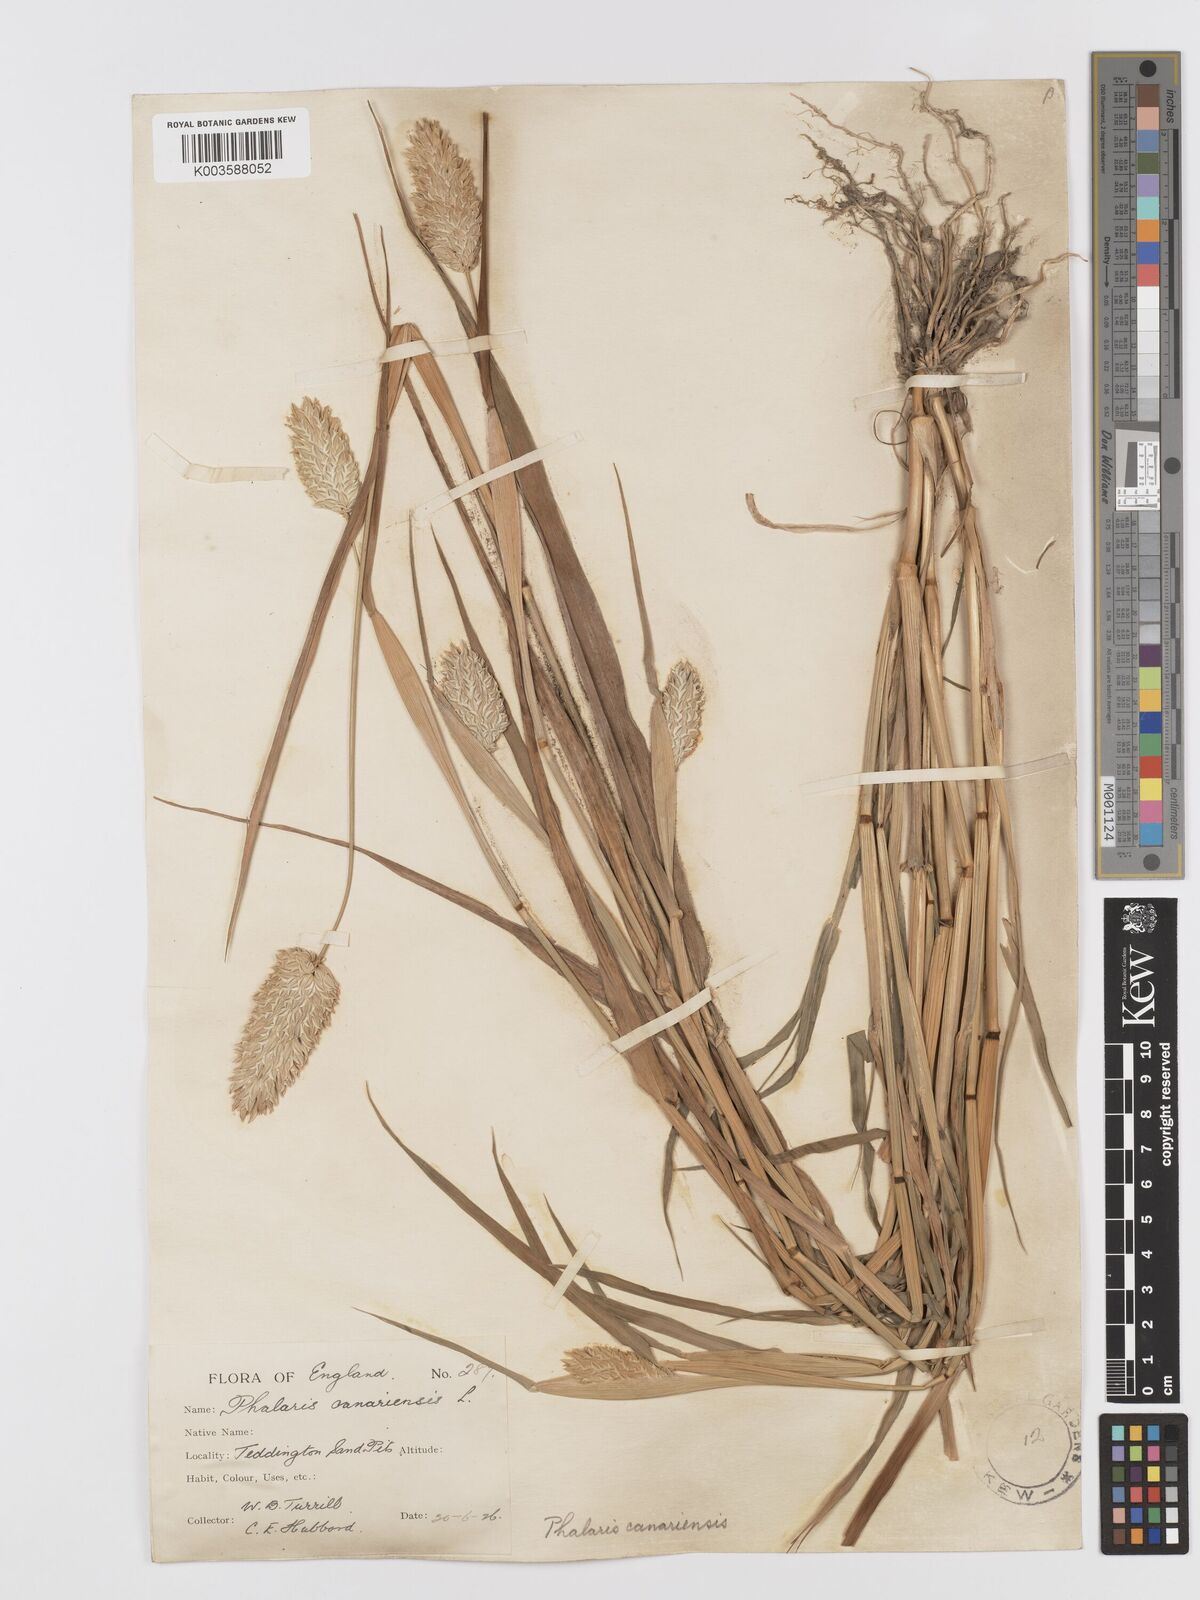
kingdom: Plantae
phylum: Tracheophyta
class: Liliopsida
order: Poales
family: Poaceae
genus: Phalaris
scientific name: Phalaris canariensis
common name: Annual canarygrass
